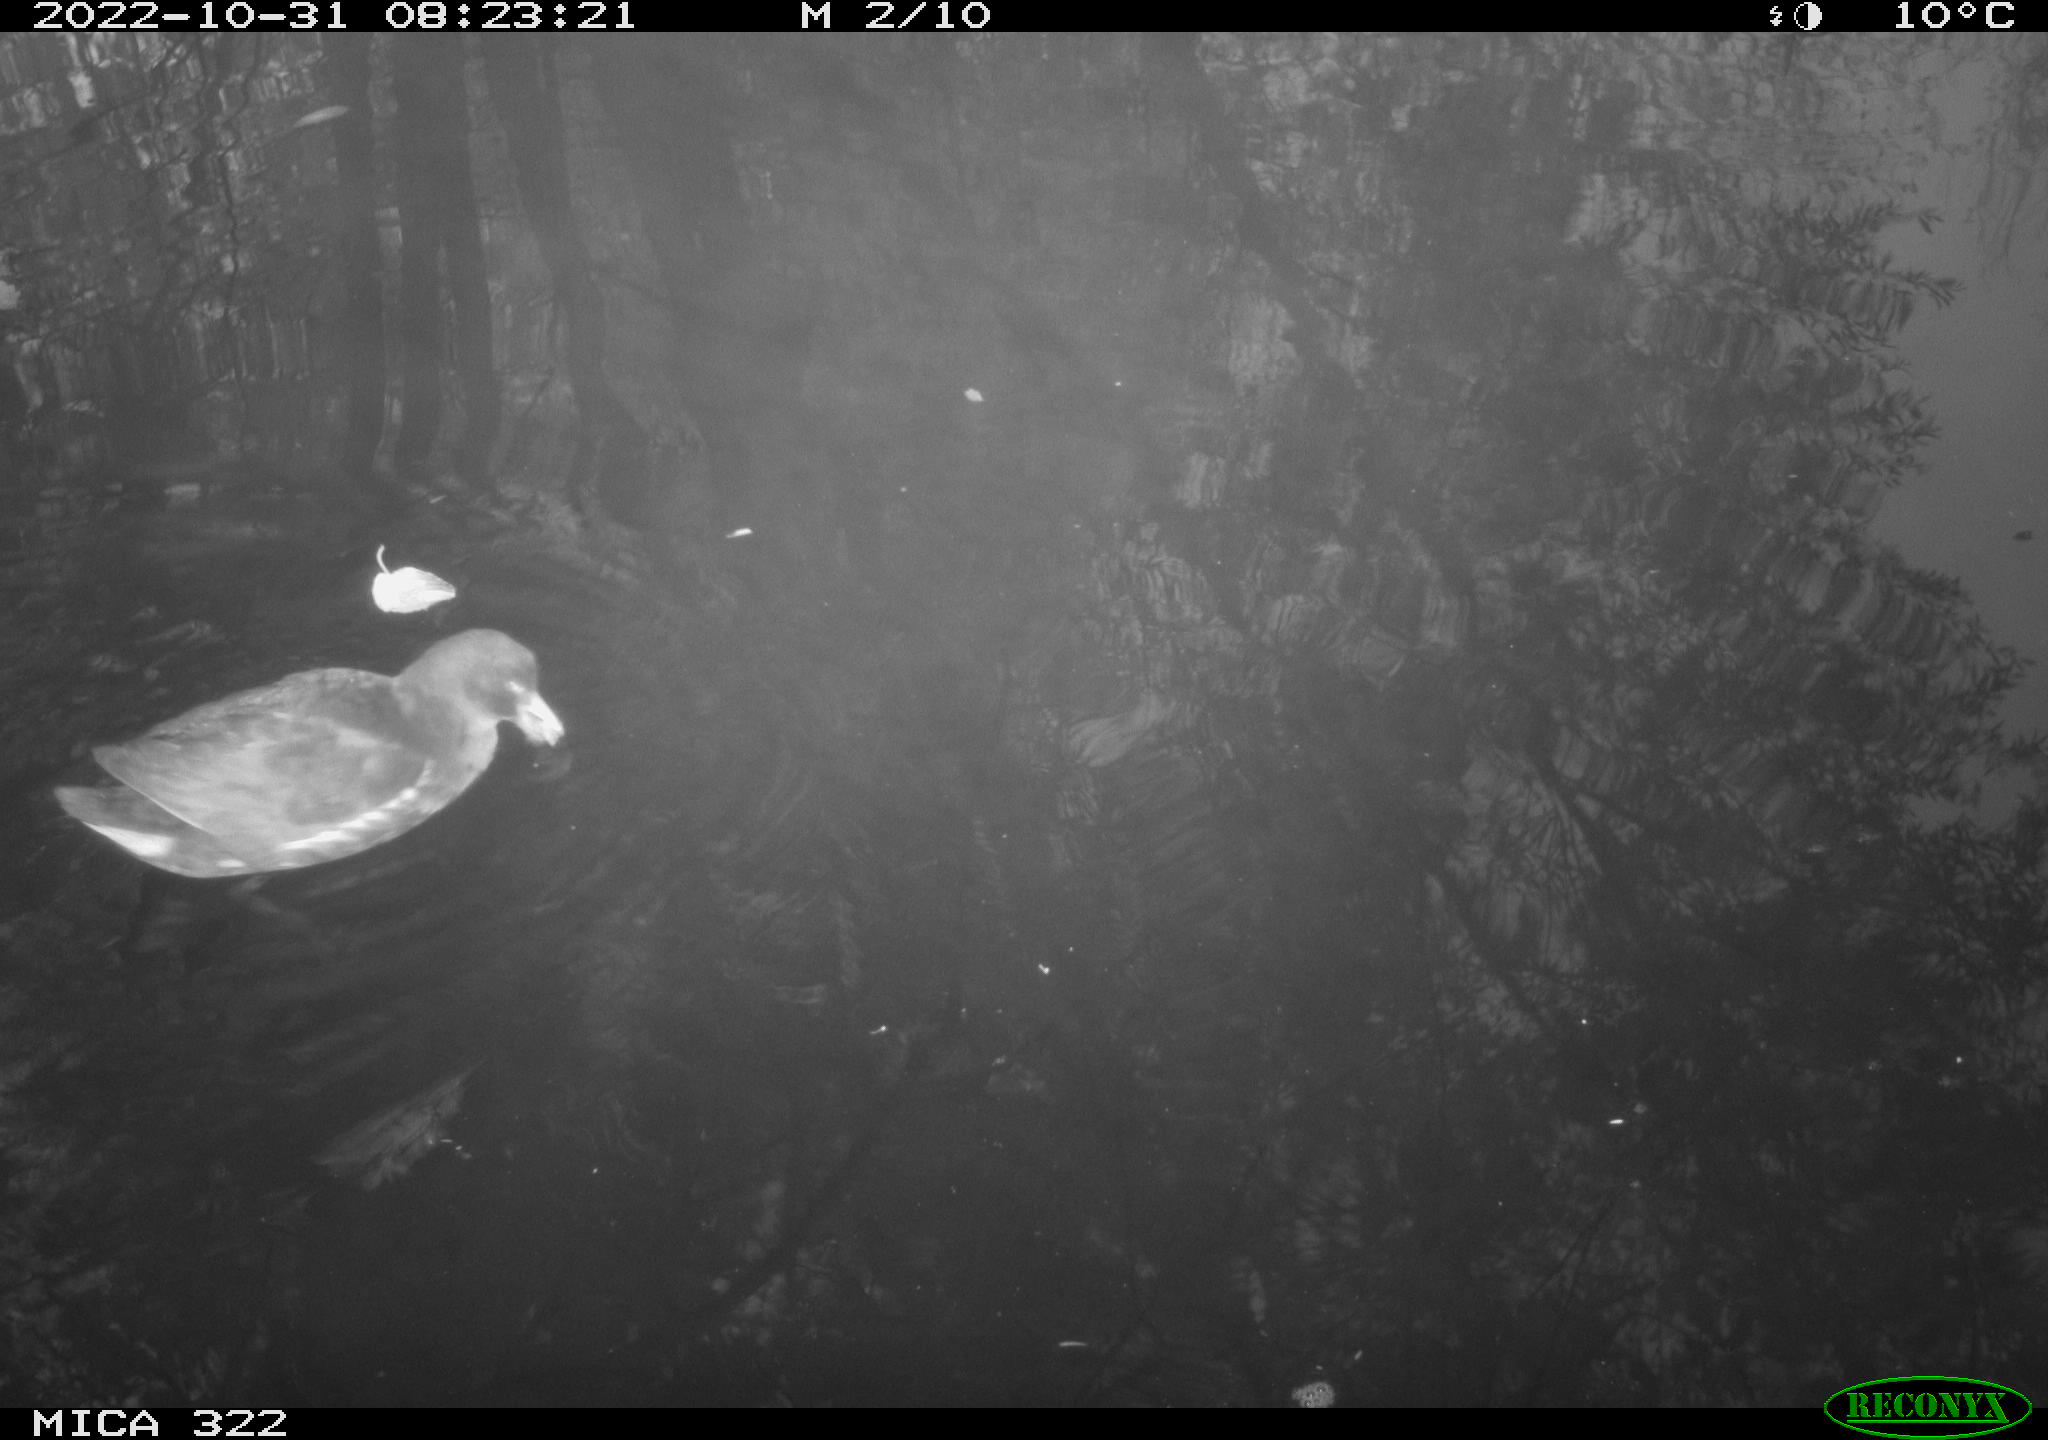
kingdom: Animalia
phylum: Chordata
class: Aves
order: Gruiformes
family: Rallidae
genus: Gallinula
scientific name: Gallinula chloropus
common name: Common moorhen
